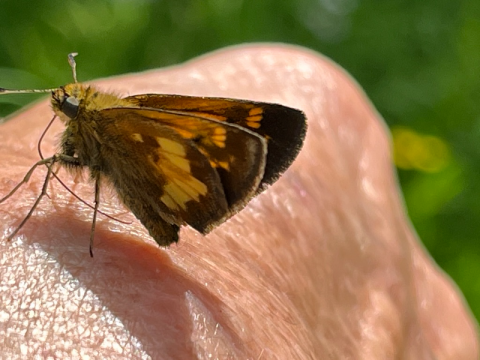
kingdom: Animalia
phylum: Arthropoda
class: Insecta
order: Lepidoptera
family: Hesperiidae
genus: Lon
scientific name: Lon hobomok
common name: Hobomok Skipper
